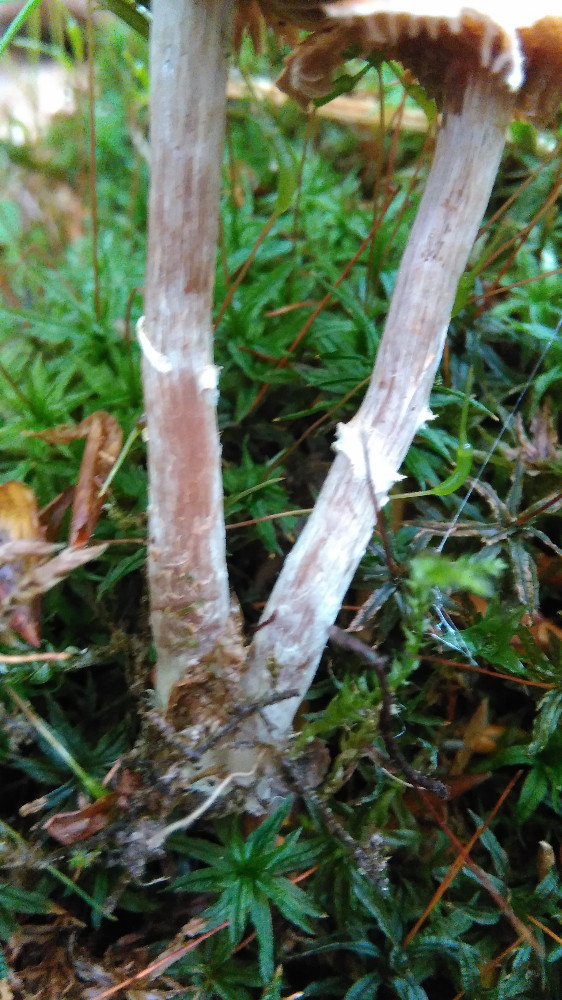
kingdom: Fungi
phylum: Basidiomycota
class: Agaricomycetes
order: Agaricales
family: Cortinariaceae
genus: Cortinarius
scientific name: Cortinarius
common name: pelargonie-slørhat
